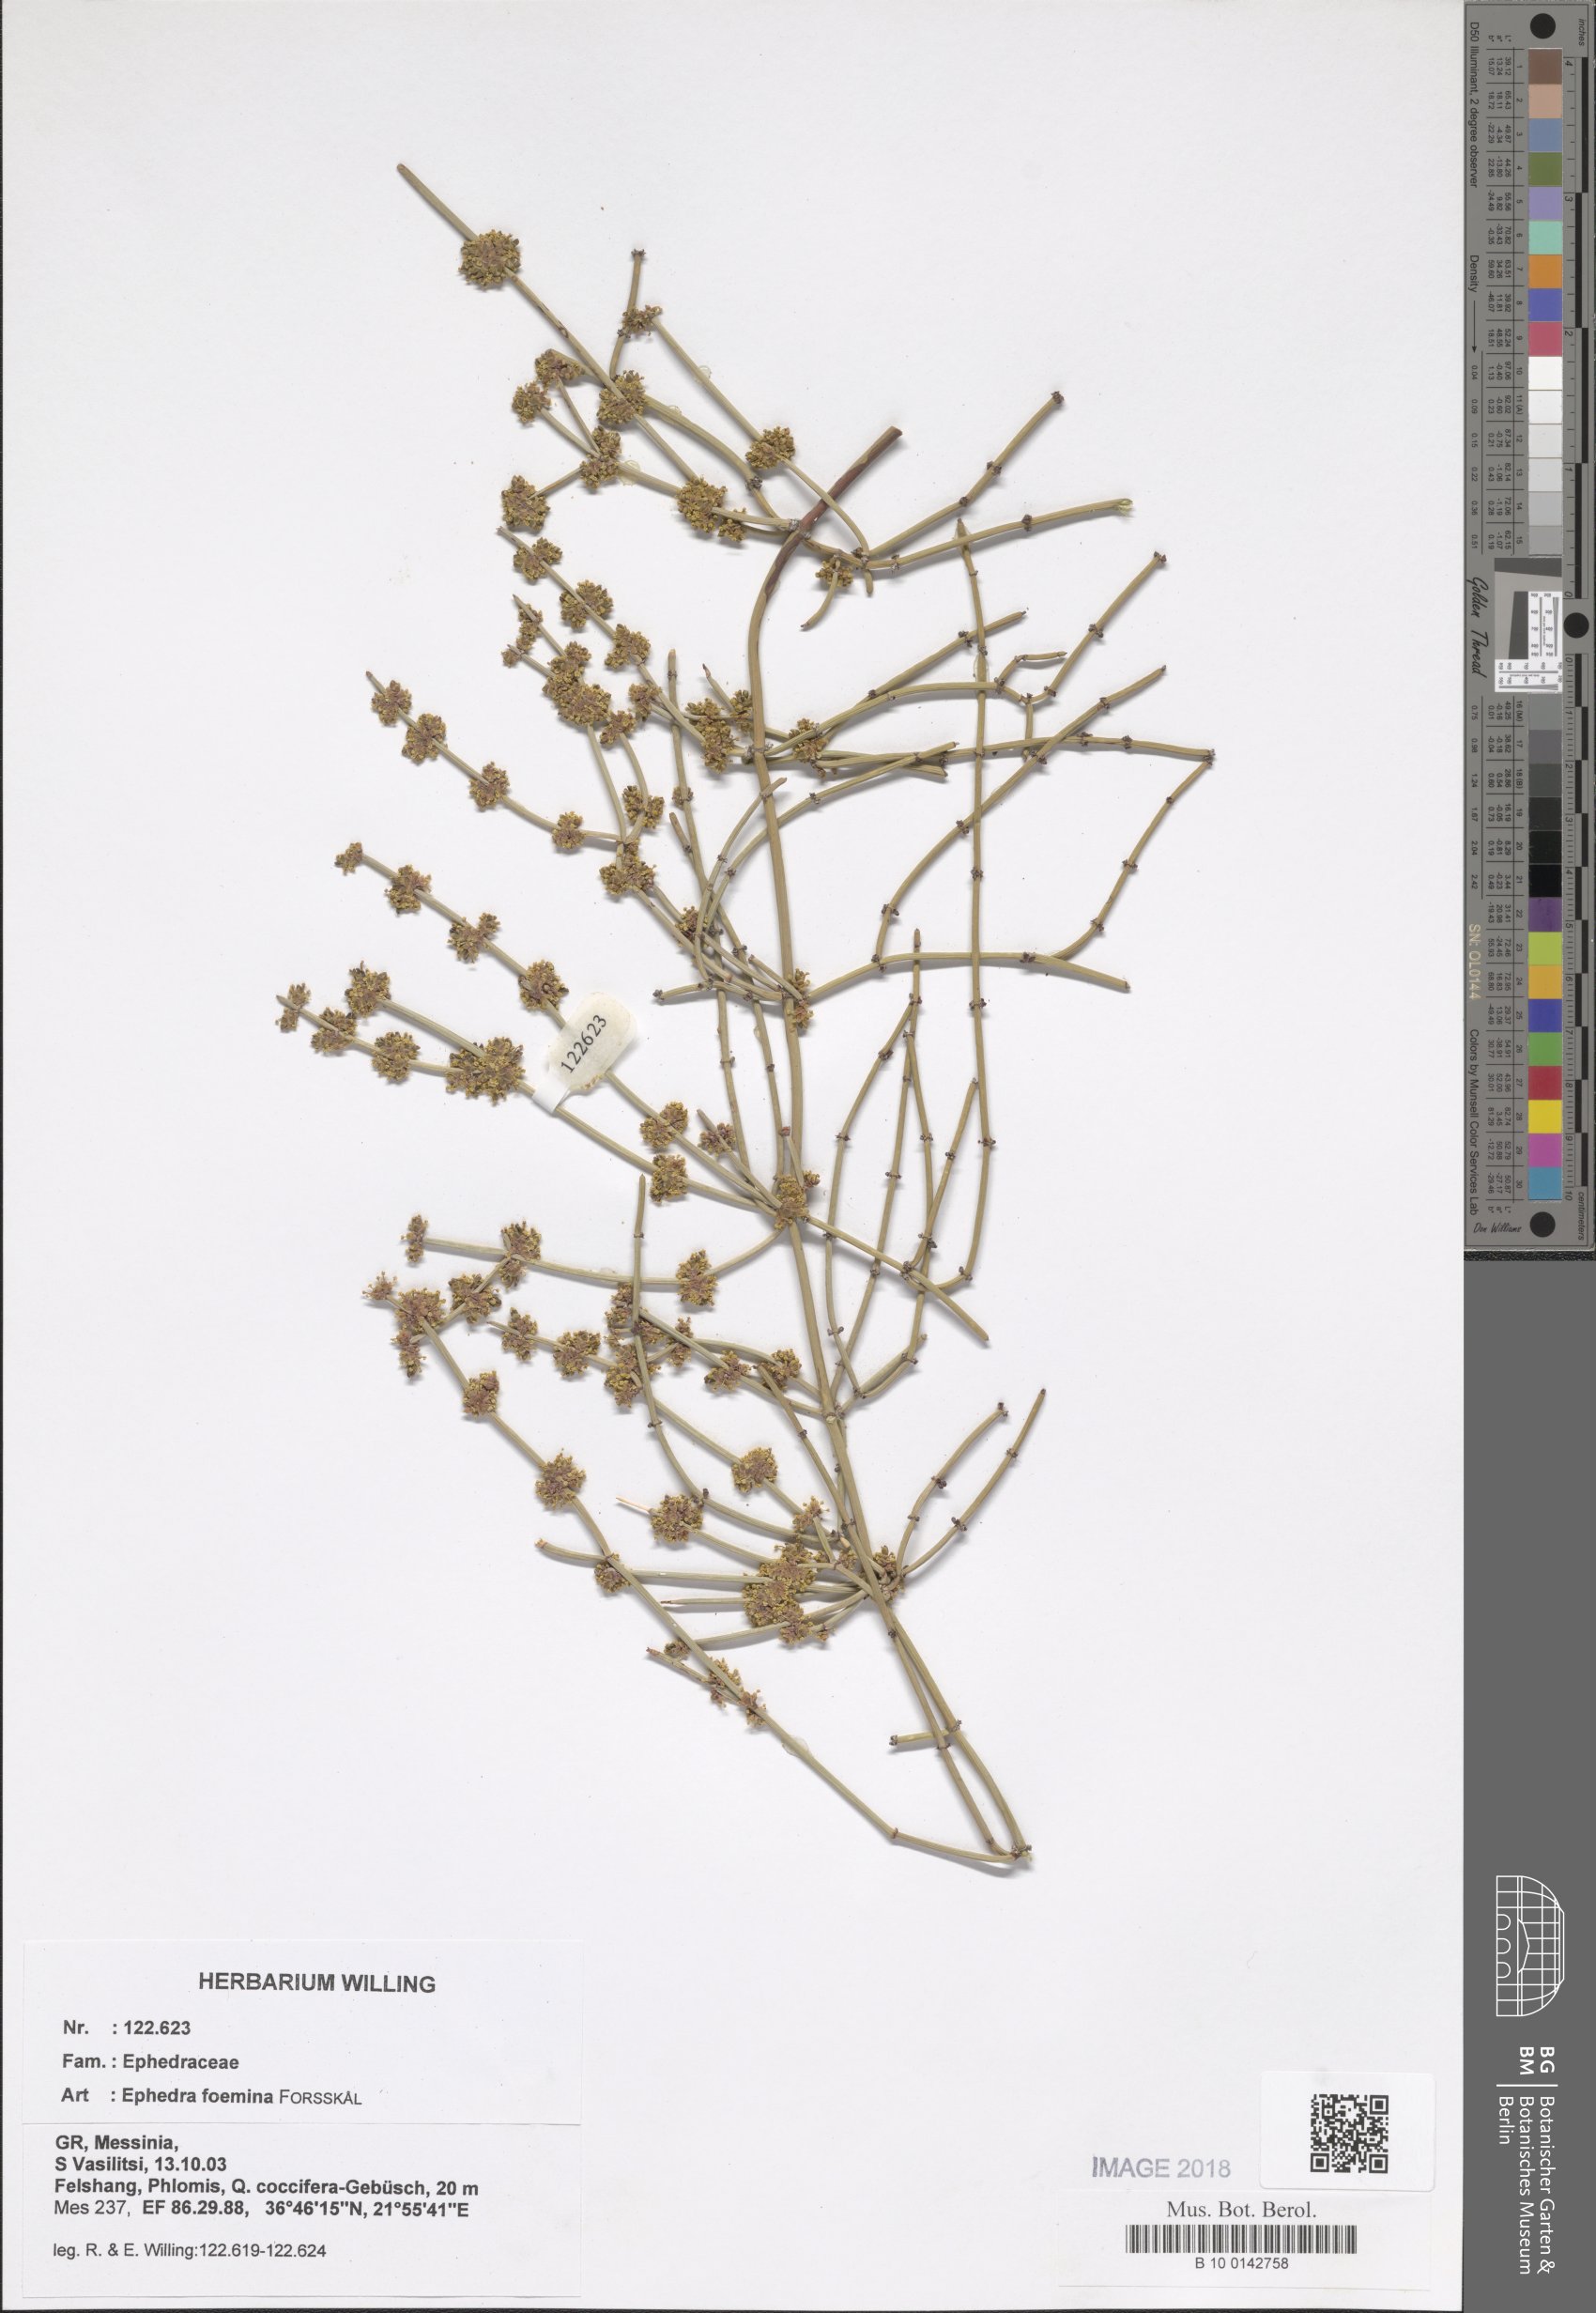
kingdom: Plantae
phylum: Tracheophyta
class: Gnetopsida
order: Ephedrales
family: Ephedraceae
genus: Ephedra
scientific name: Ephedra foeminea
